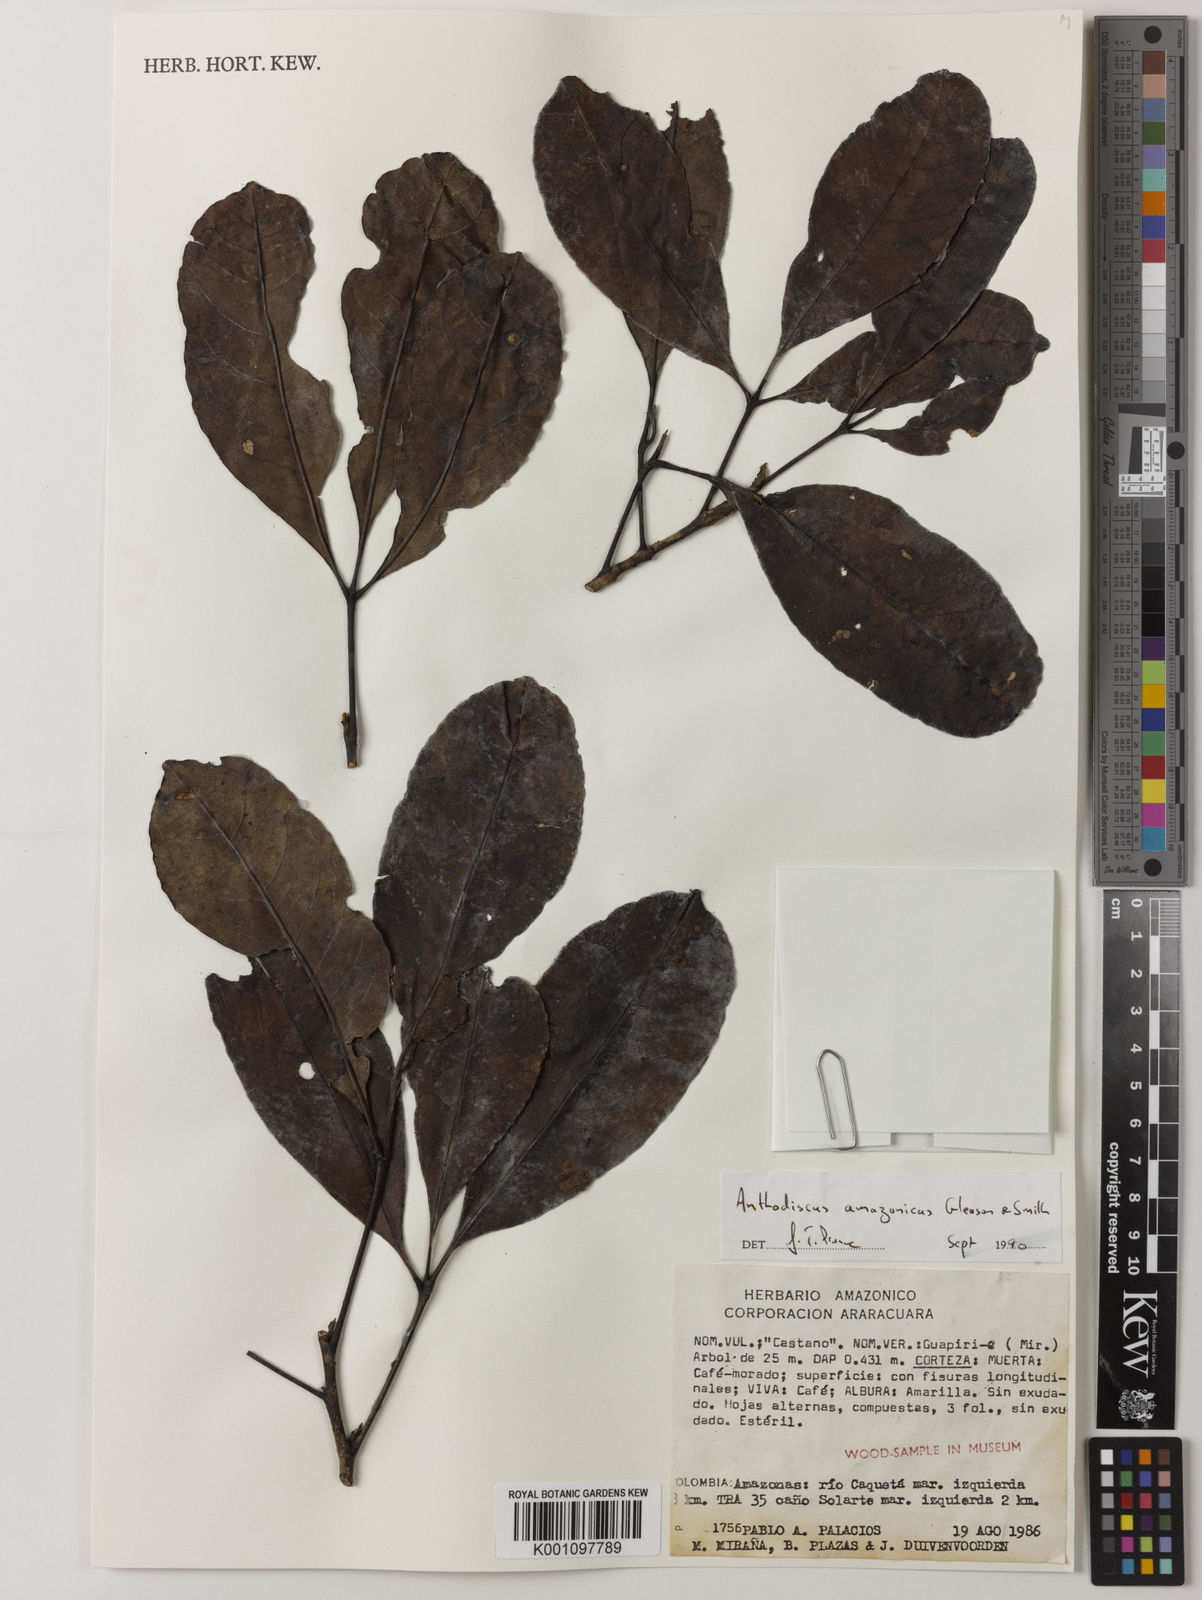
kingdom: Plantae
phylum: Tracheophyta
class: Magnoliopsida
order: Malpighiales
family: Caryocaraceae
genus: Anthodiscus
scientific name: Anthodiscus amazonicus
